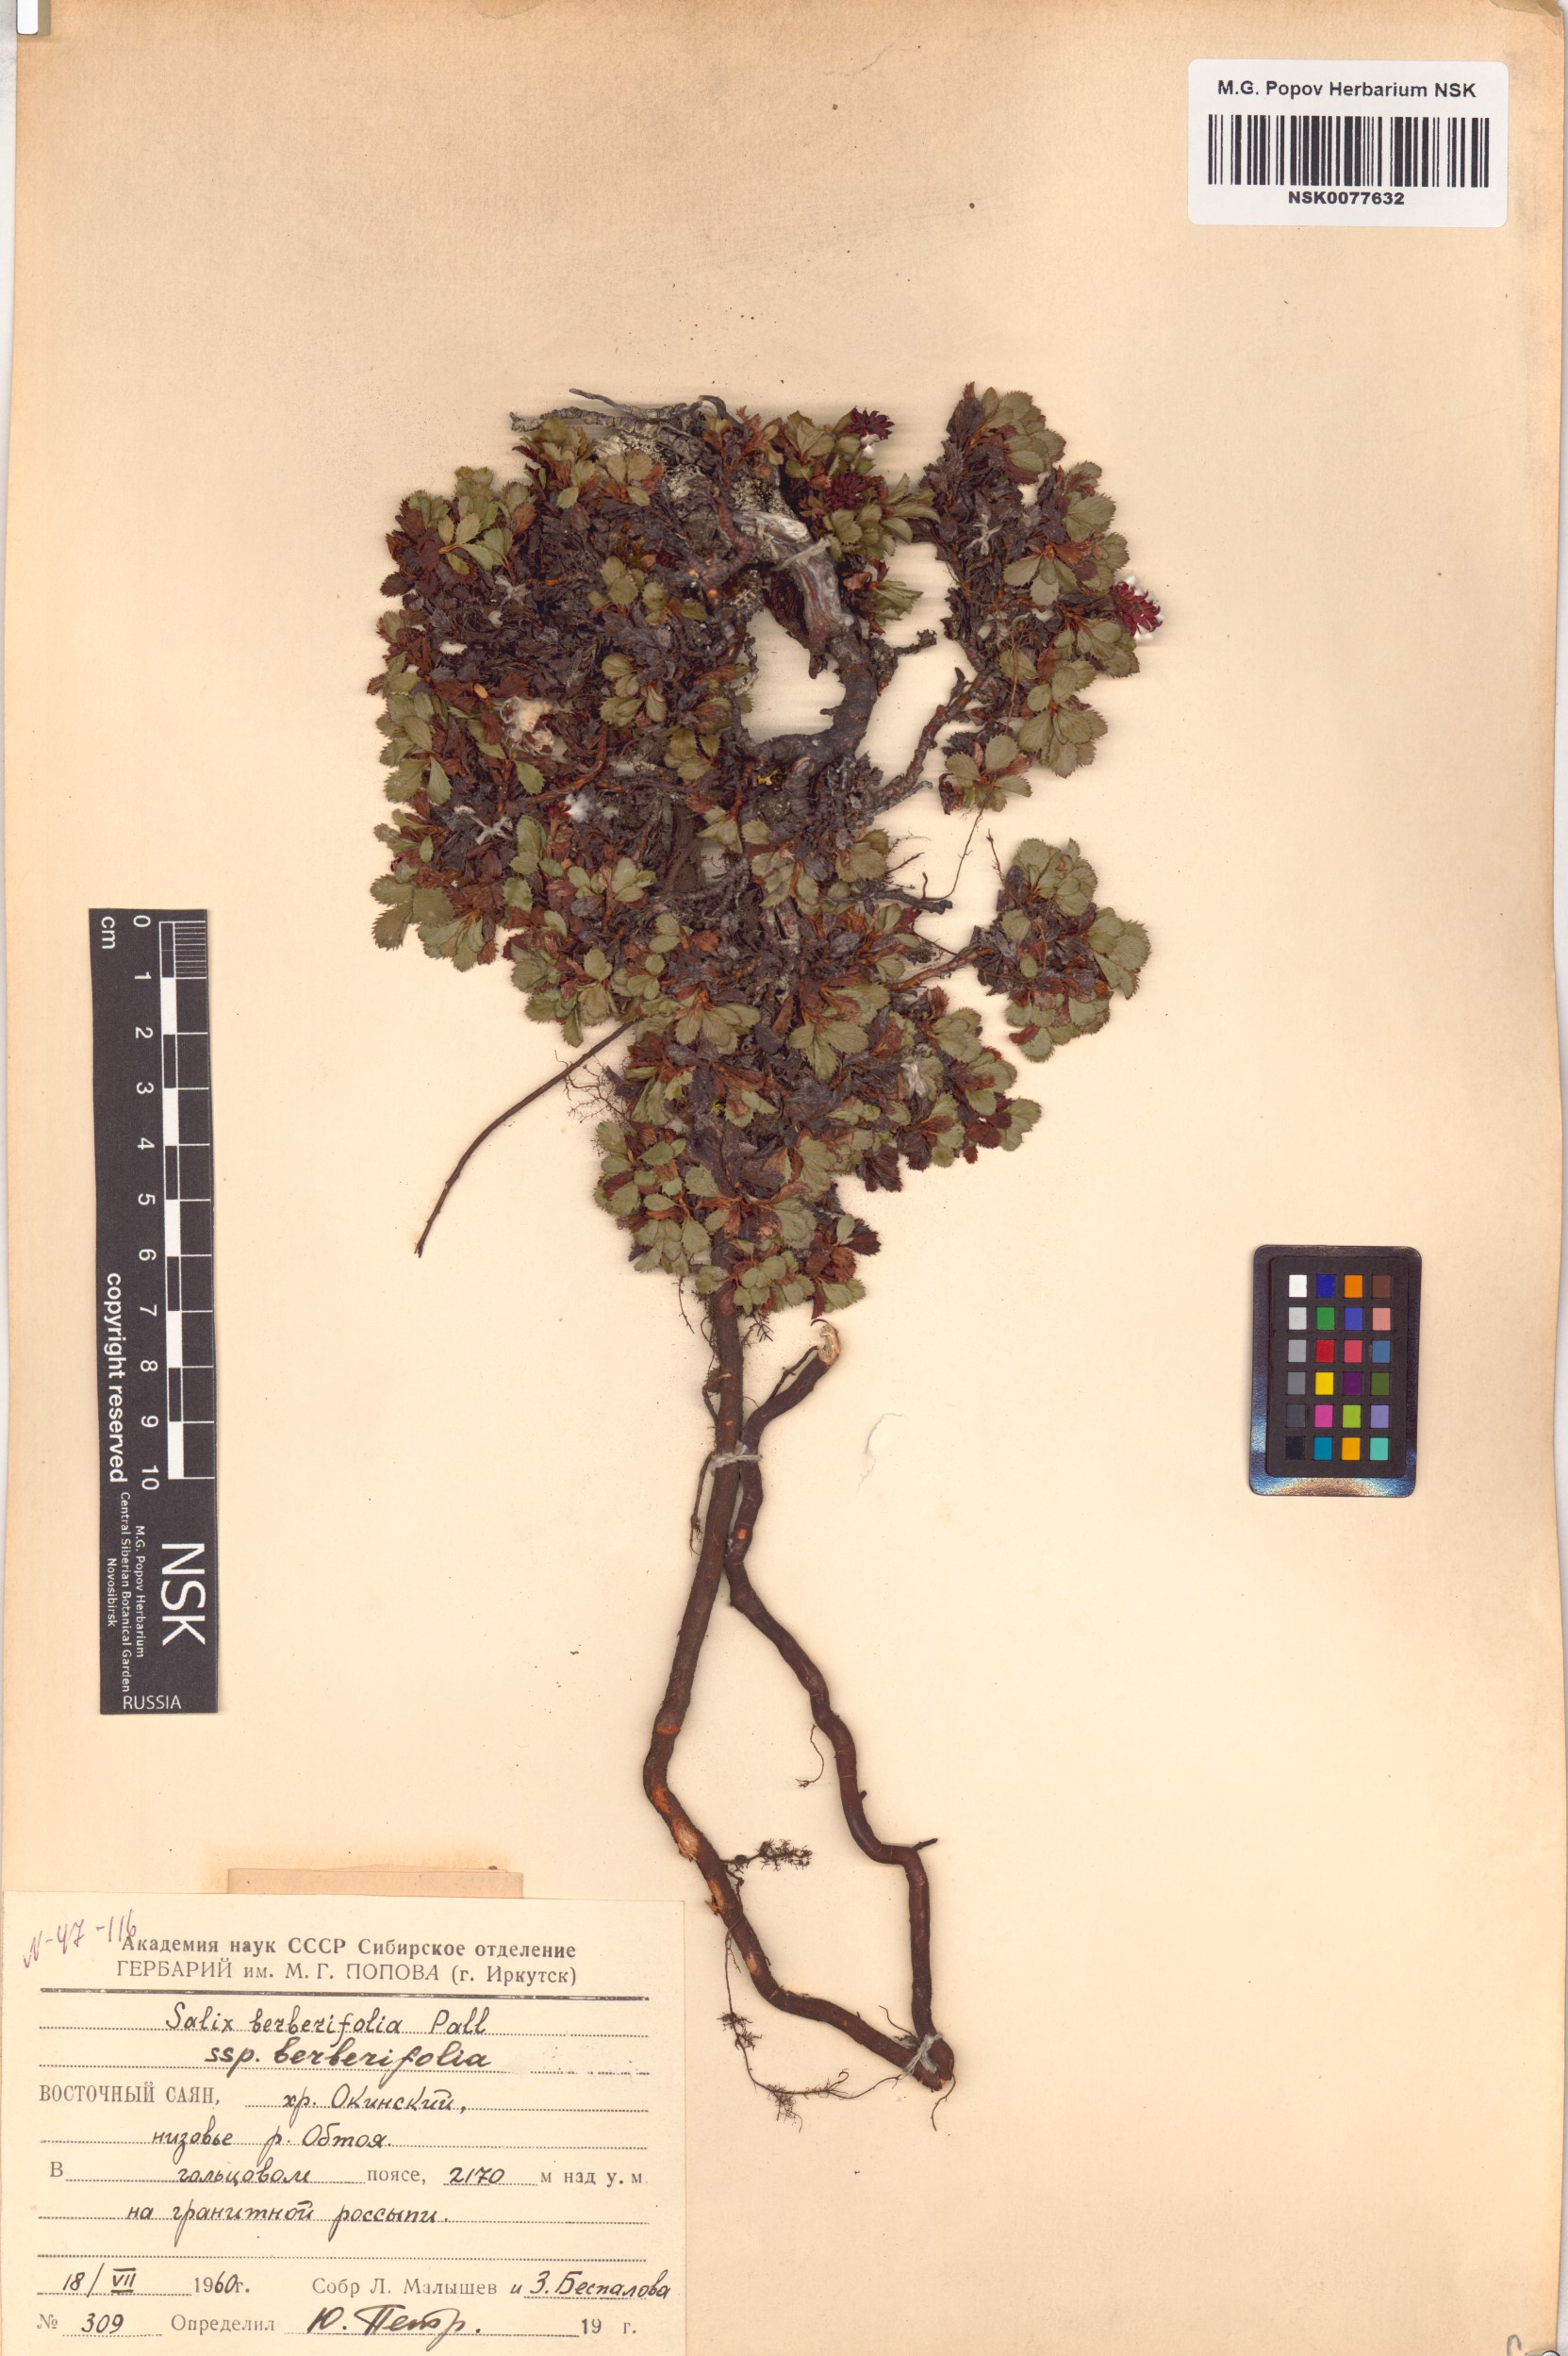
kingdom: Plantae
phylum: Tracheophyta
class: Magnoliopsida
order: Malpighiales
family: Salicaceae
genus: Salix
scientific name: Salix berberifolia
